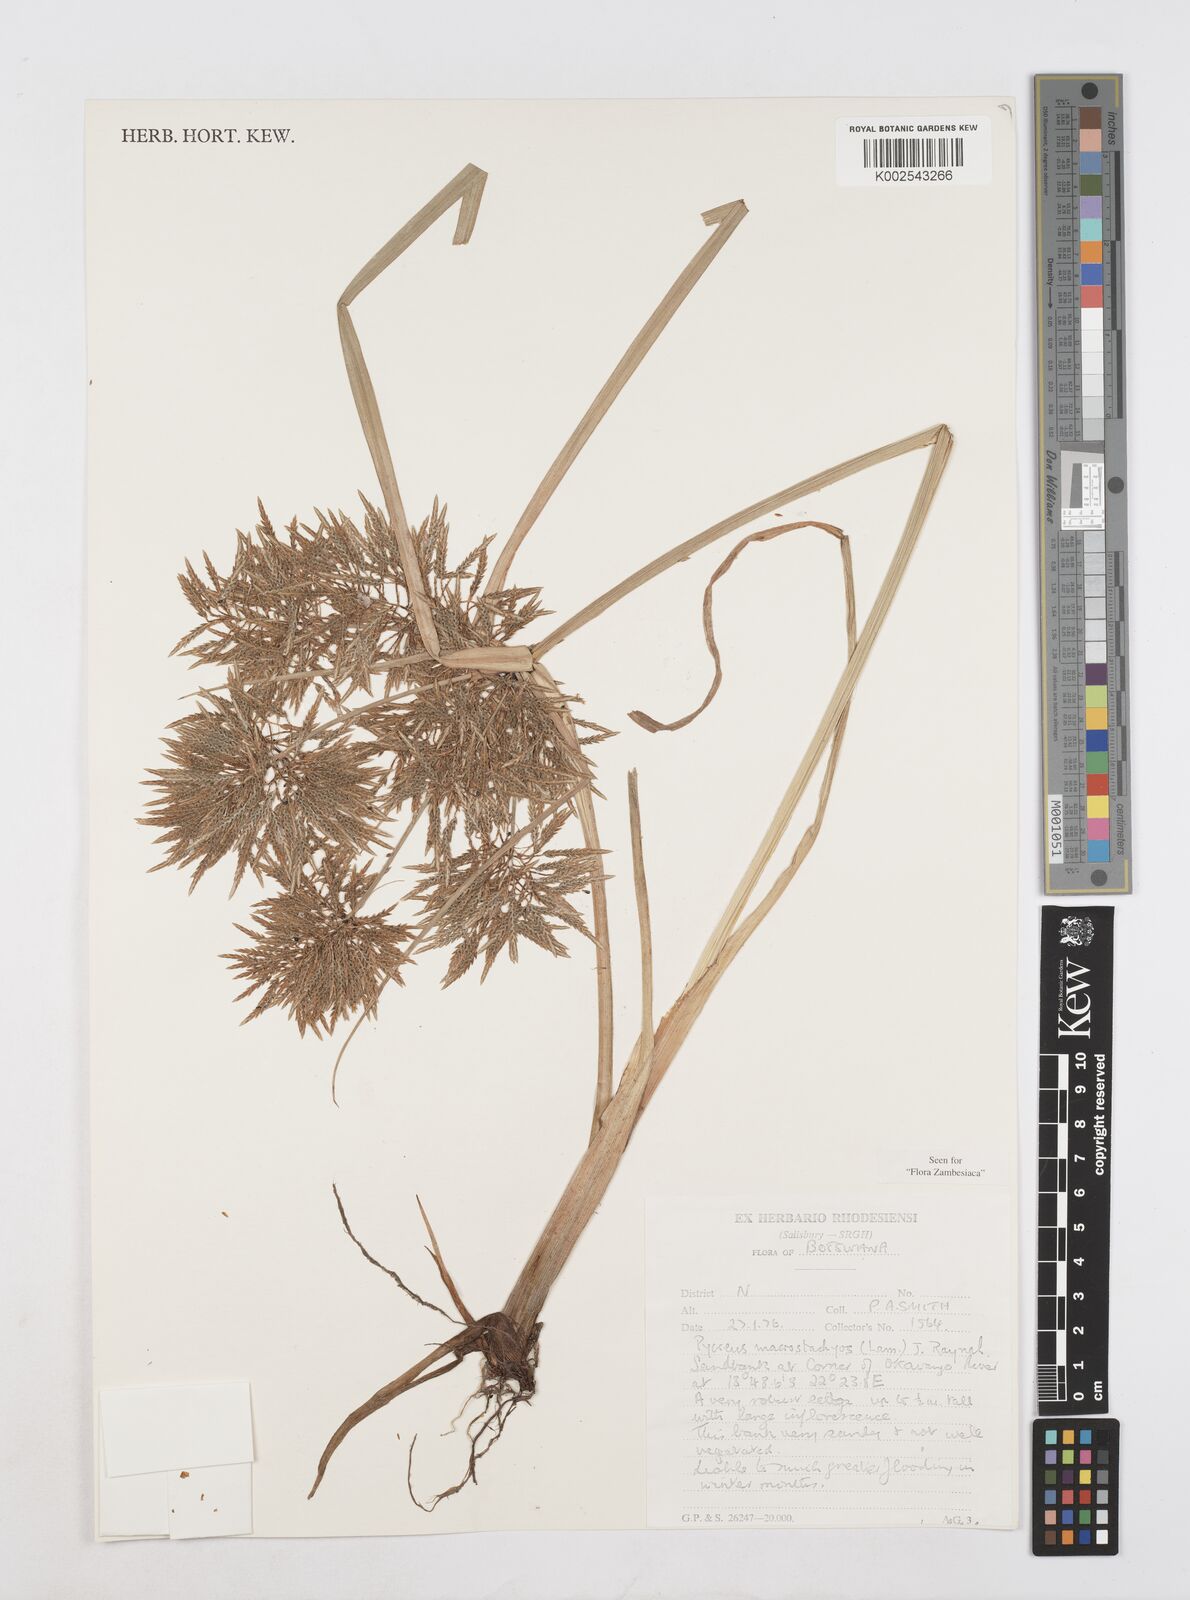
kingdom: Plantae
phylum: Tracheophyta
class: Liliopsida
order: Poales
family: Cyperaceae
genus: Cyperus
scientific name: Cyperus macrostachyos
